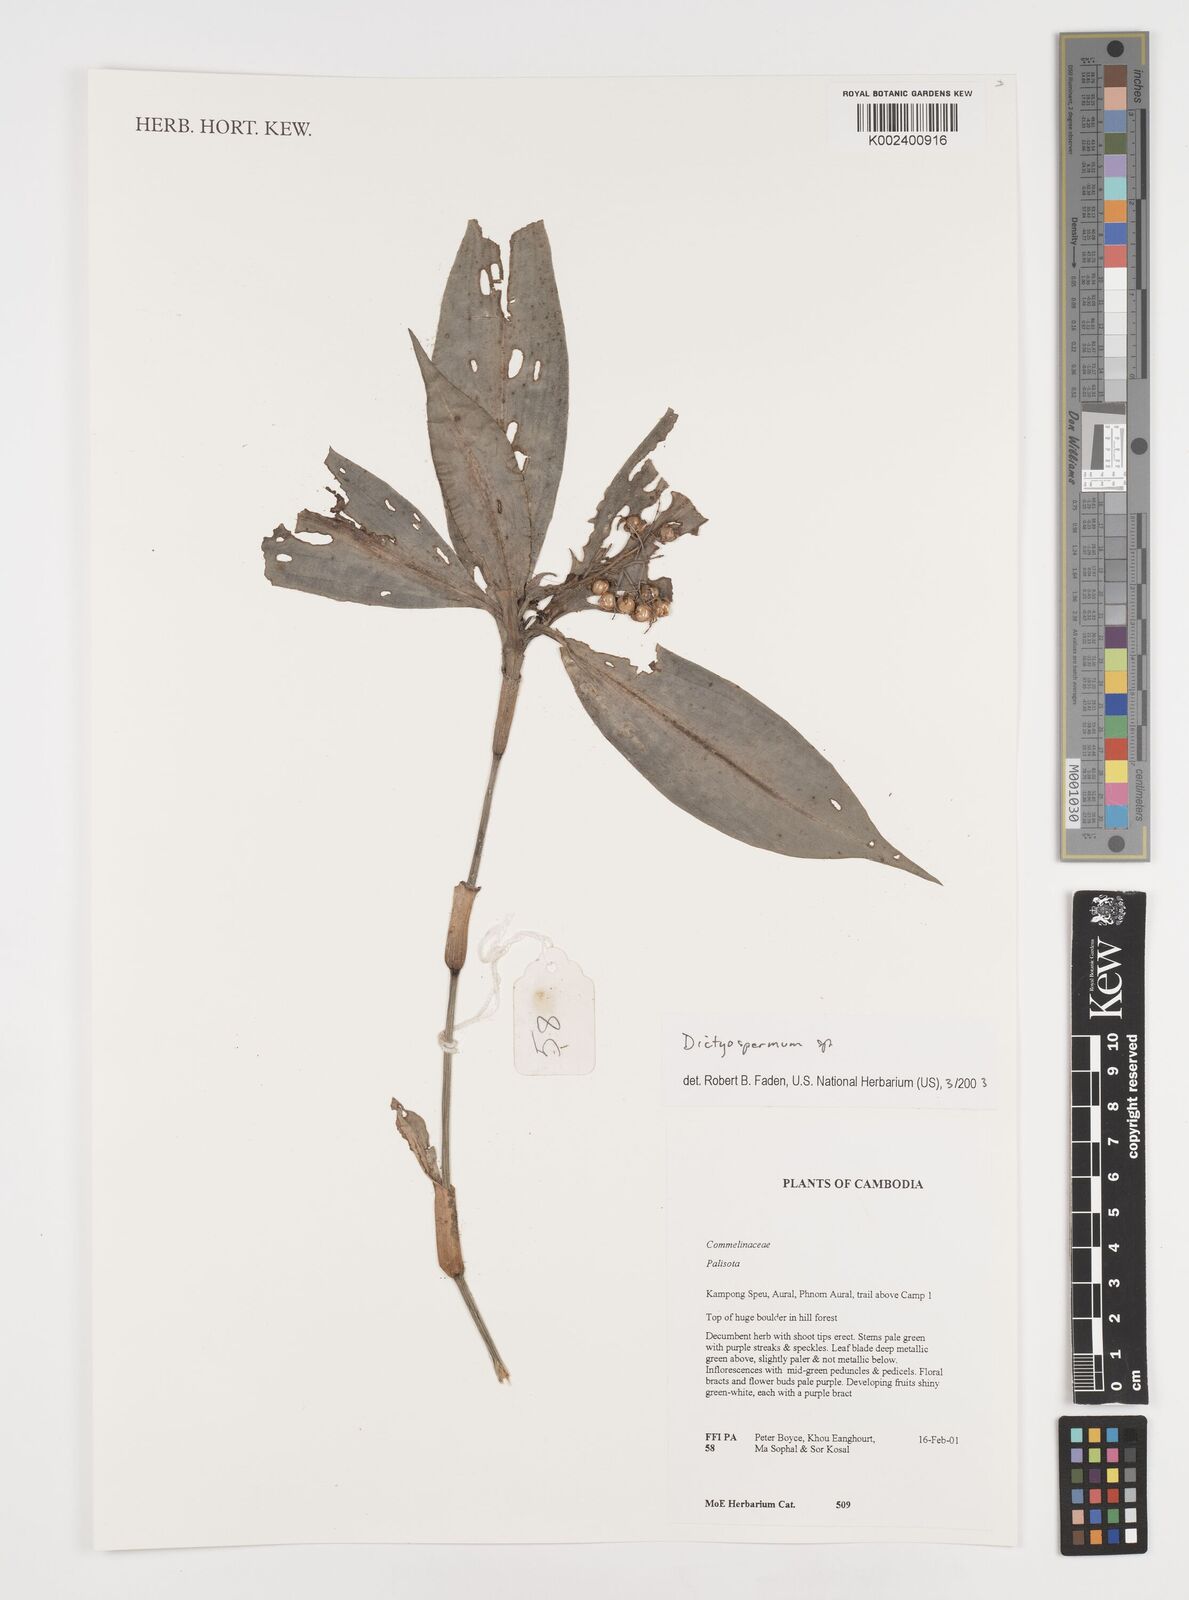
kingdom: Plantae
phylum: Tracheophyta
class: Liliopsida
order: Commelinales
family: Commelinaceae
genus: Dictyospermum
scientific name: Dictyospermum
